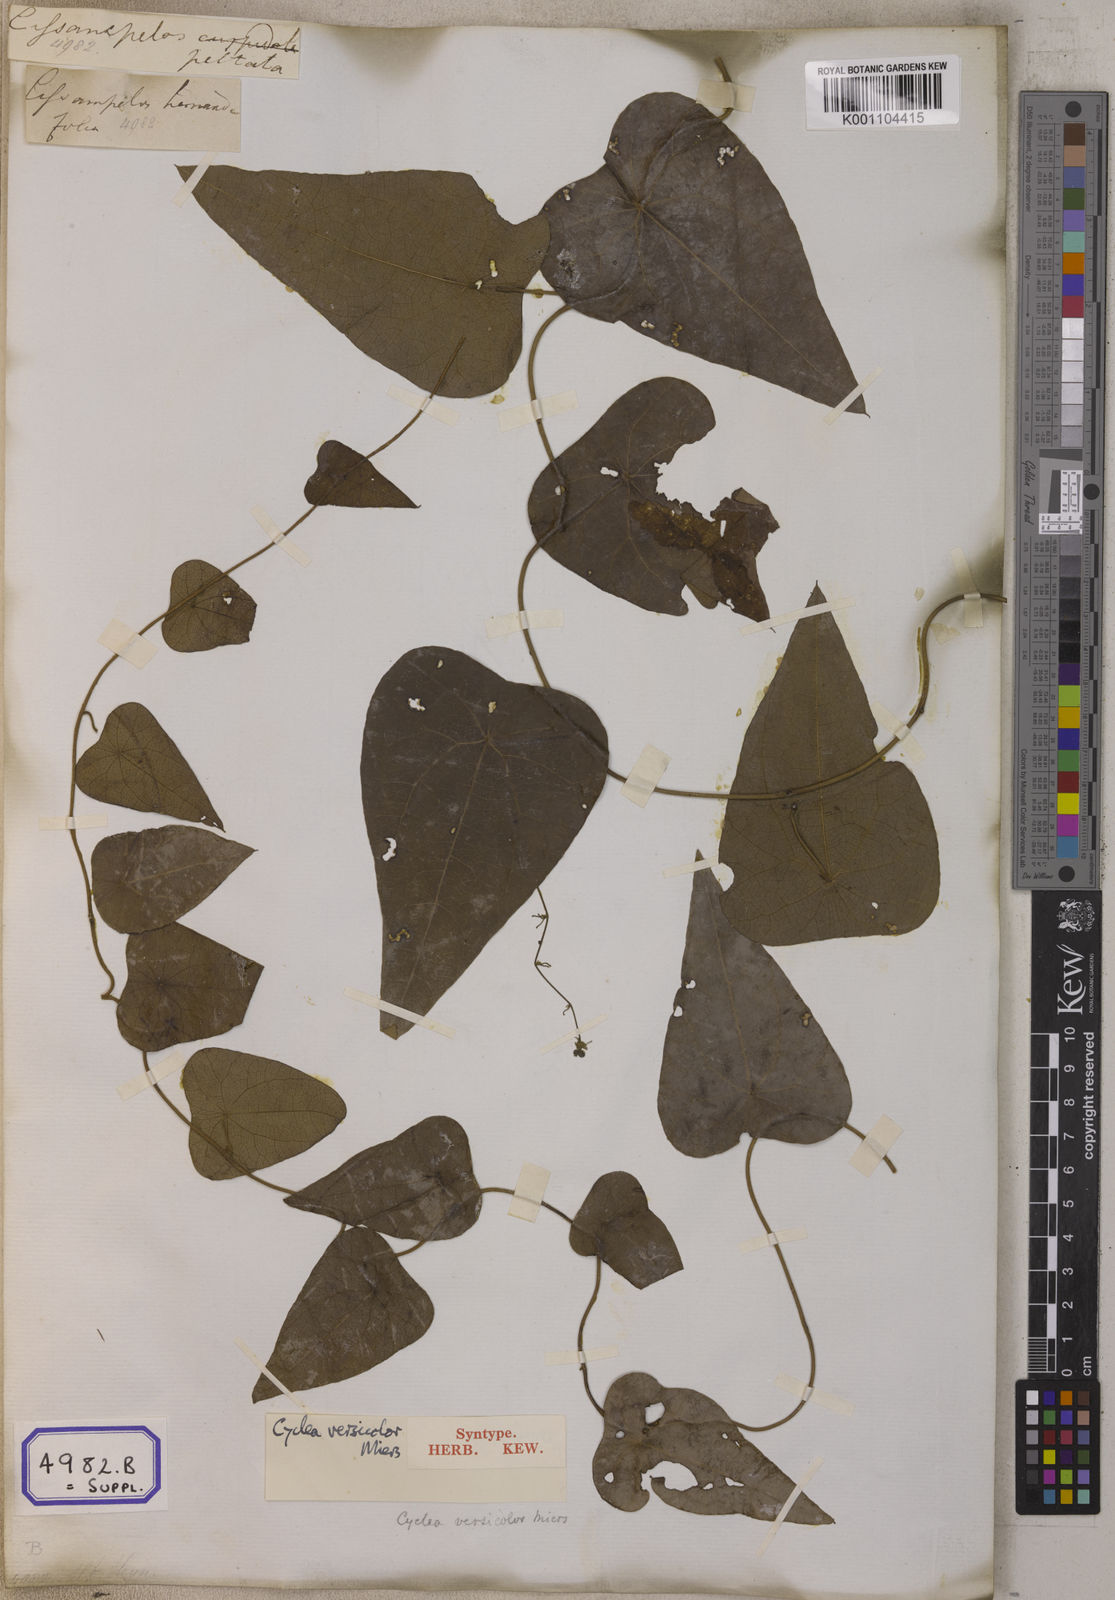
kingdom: Plantae
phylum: Tracheophyta
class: Magnoliopsida
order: Ranunculales
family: Menispermaceae
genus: Cissampelos
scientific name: Cissampelos pareira
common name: Velvetleaf
